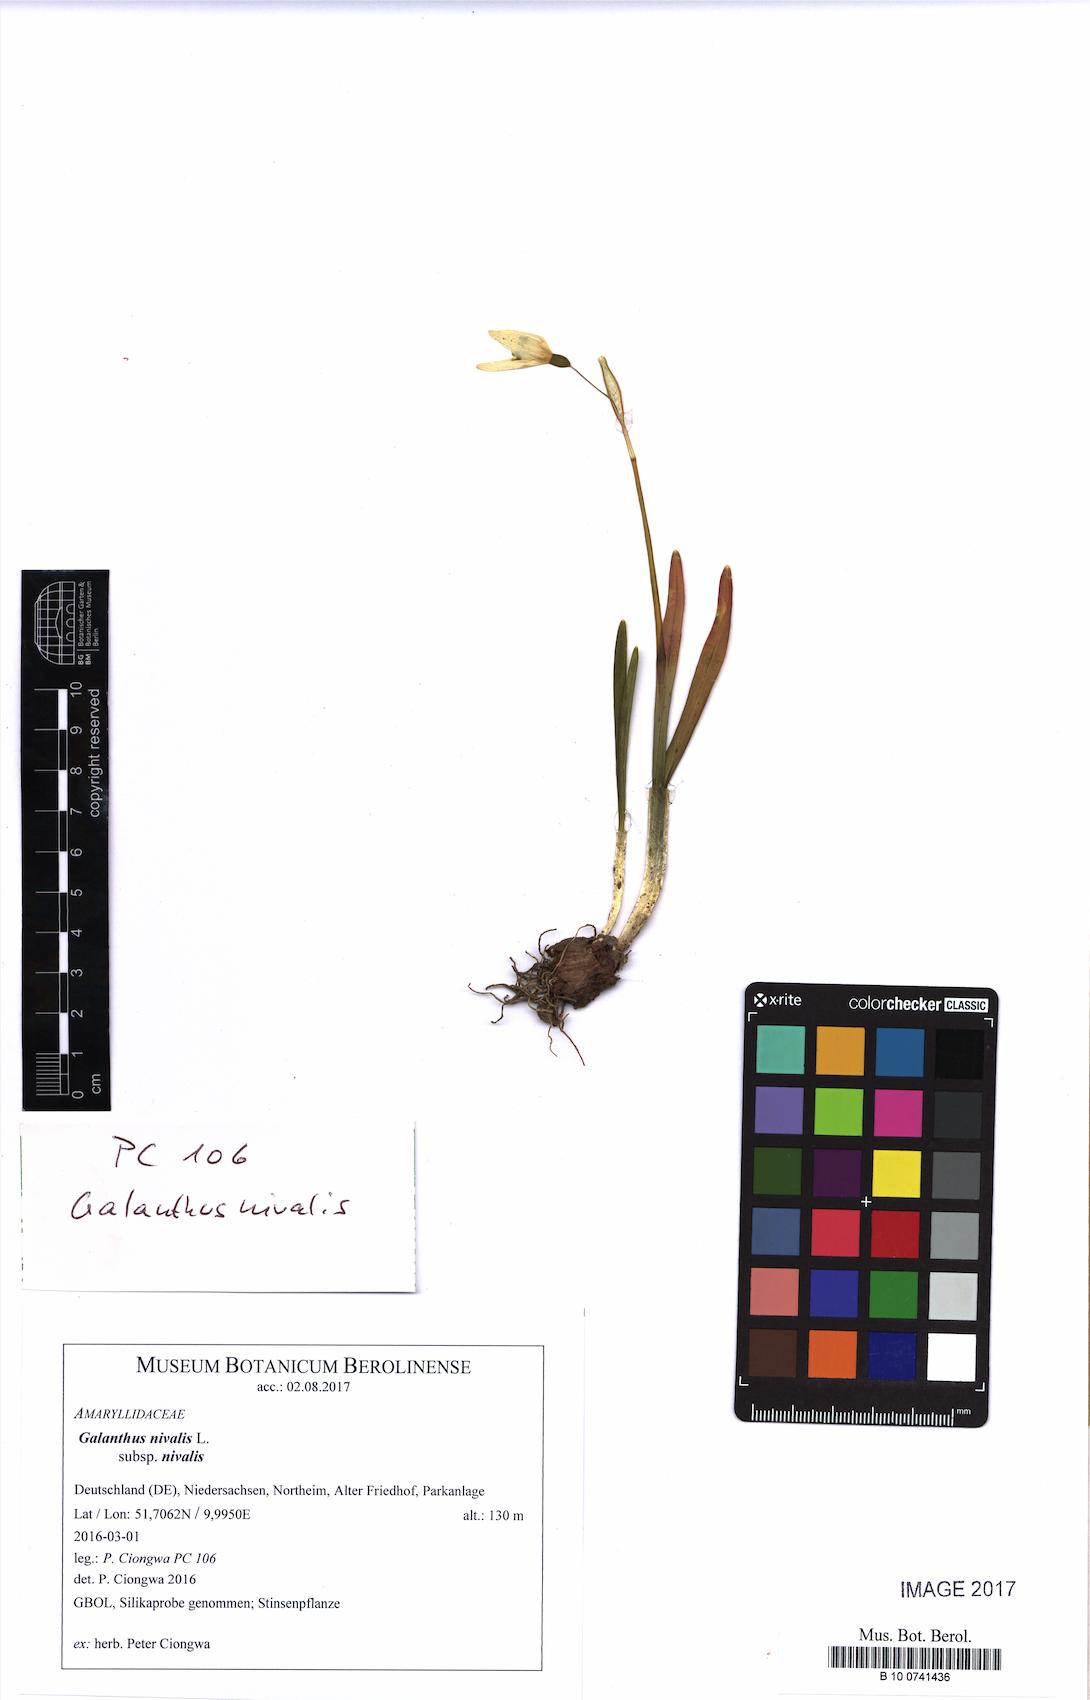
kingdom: Plantae
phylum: Tracheophyta
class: Liliopsida
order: Asparagales
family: Amaryllidaceae
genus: Galanthus
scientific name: Galanthus nivalis
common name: Snowdrop
